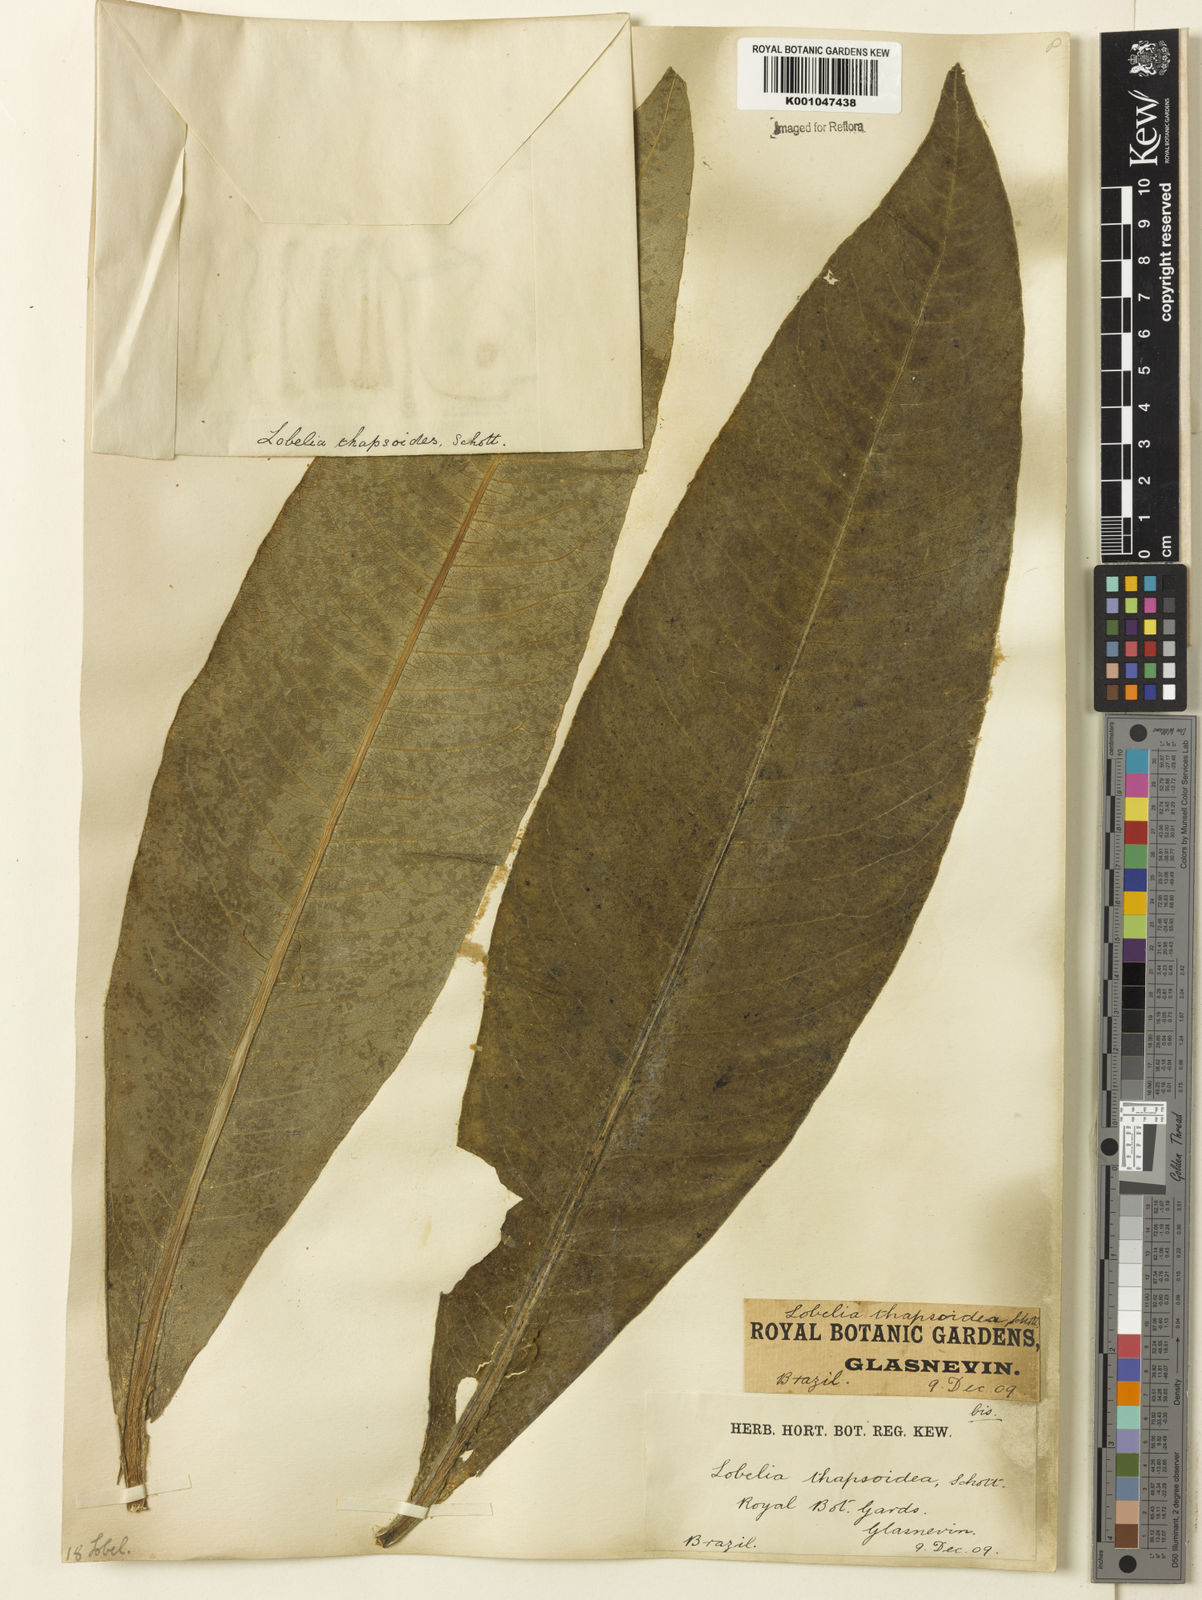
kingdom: Plantae
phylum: Tracheophyta
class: Magnoliopsida
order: Asterales
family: Campanulaceae
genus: Lobelia
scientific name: Lobelia
